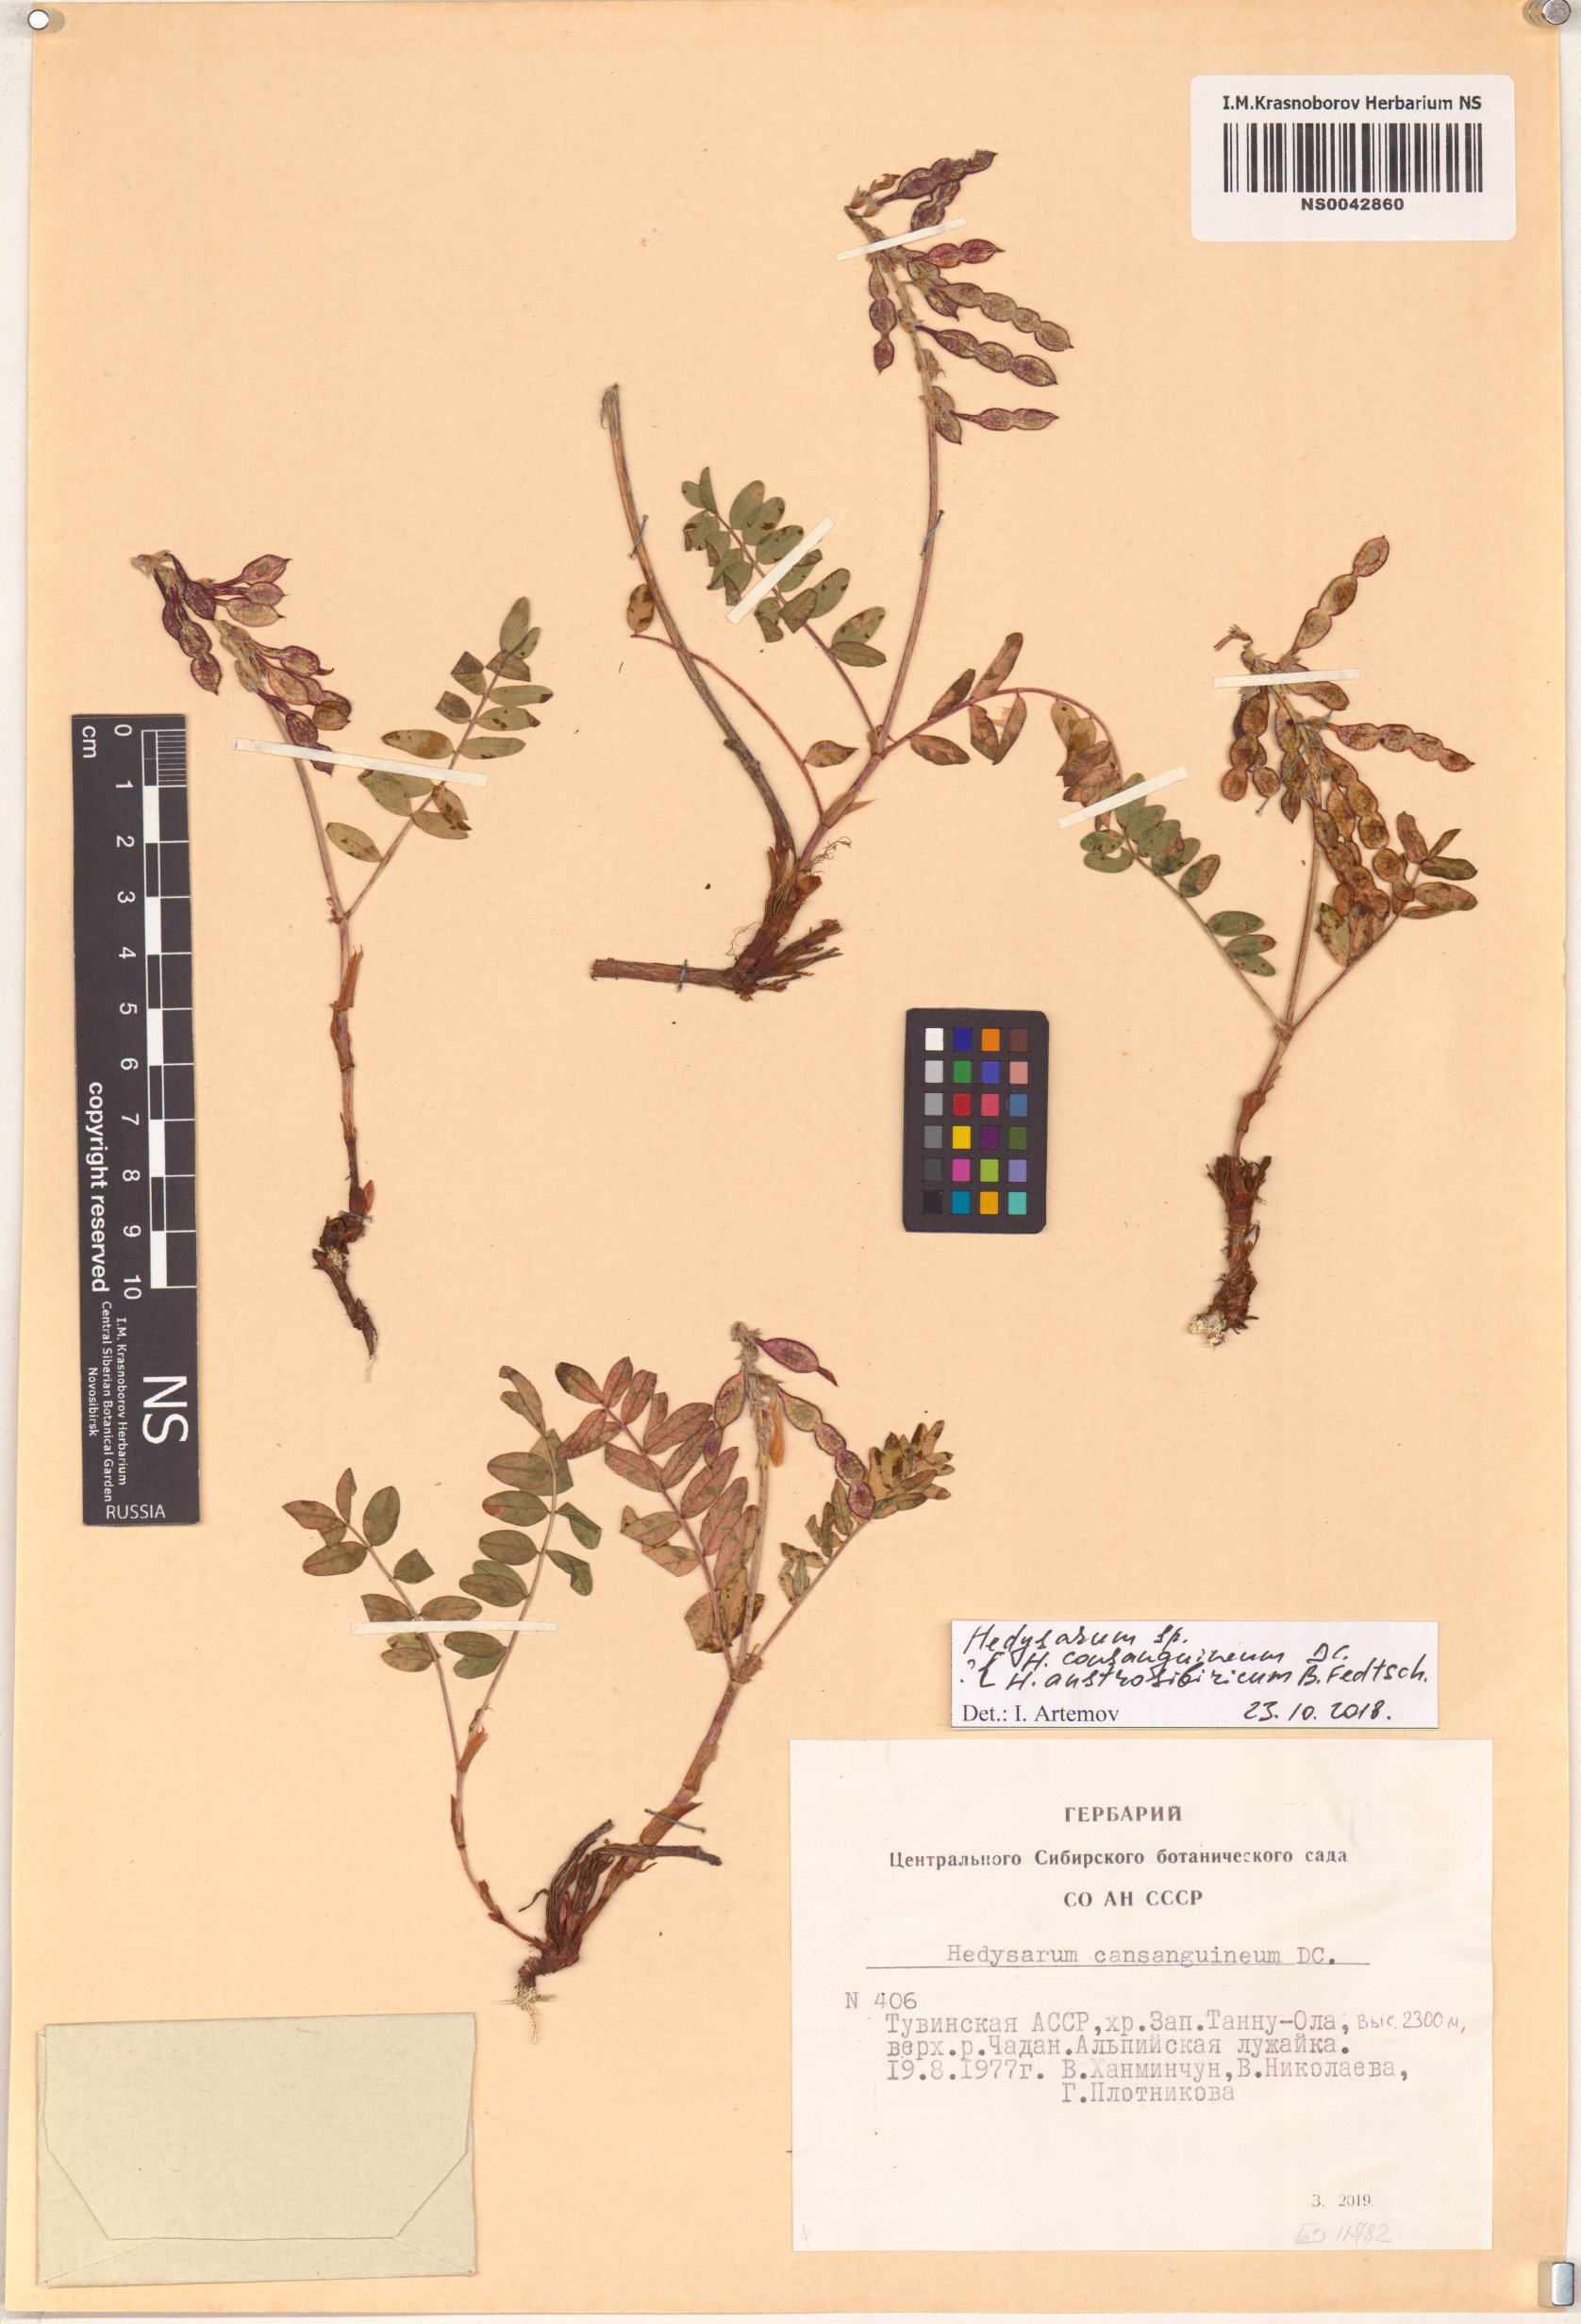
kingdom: Plantae
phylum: Tracheophyta
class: Magnoliopsida
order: Fabales
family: Fabaceae
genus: Hedysarum
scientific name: Hedysarum consanguineum
